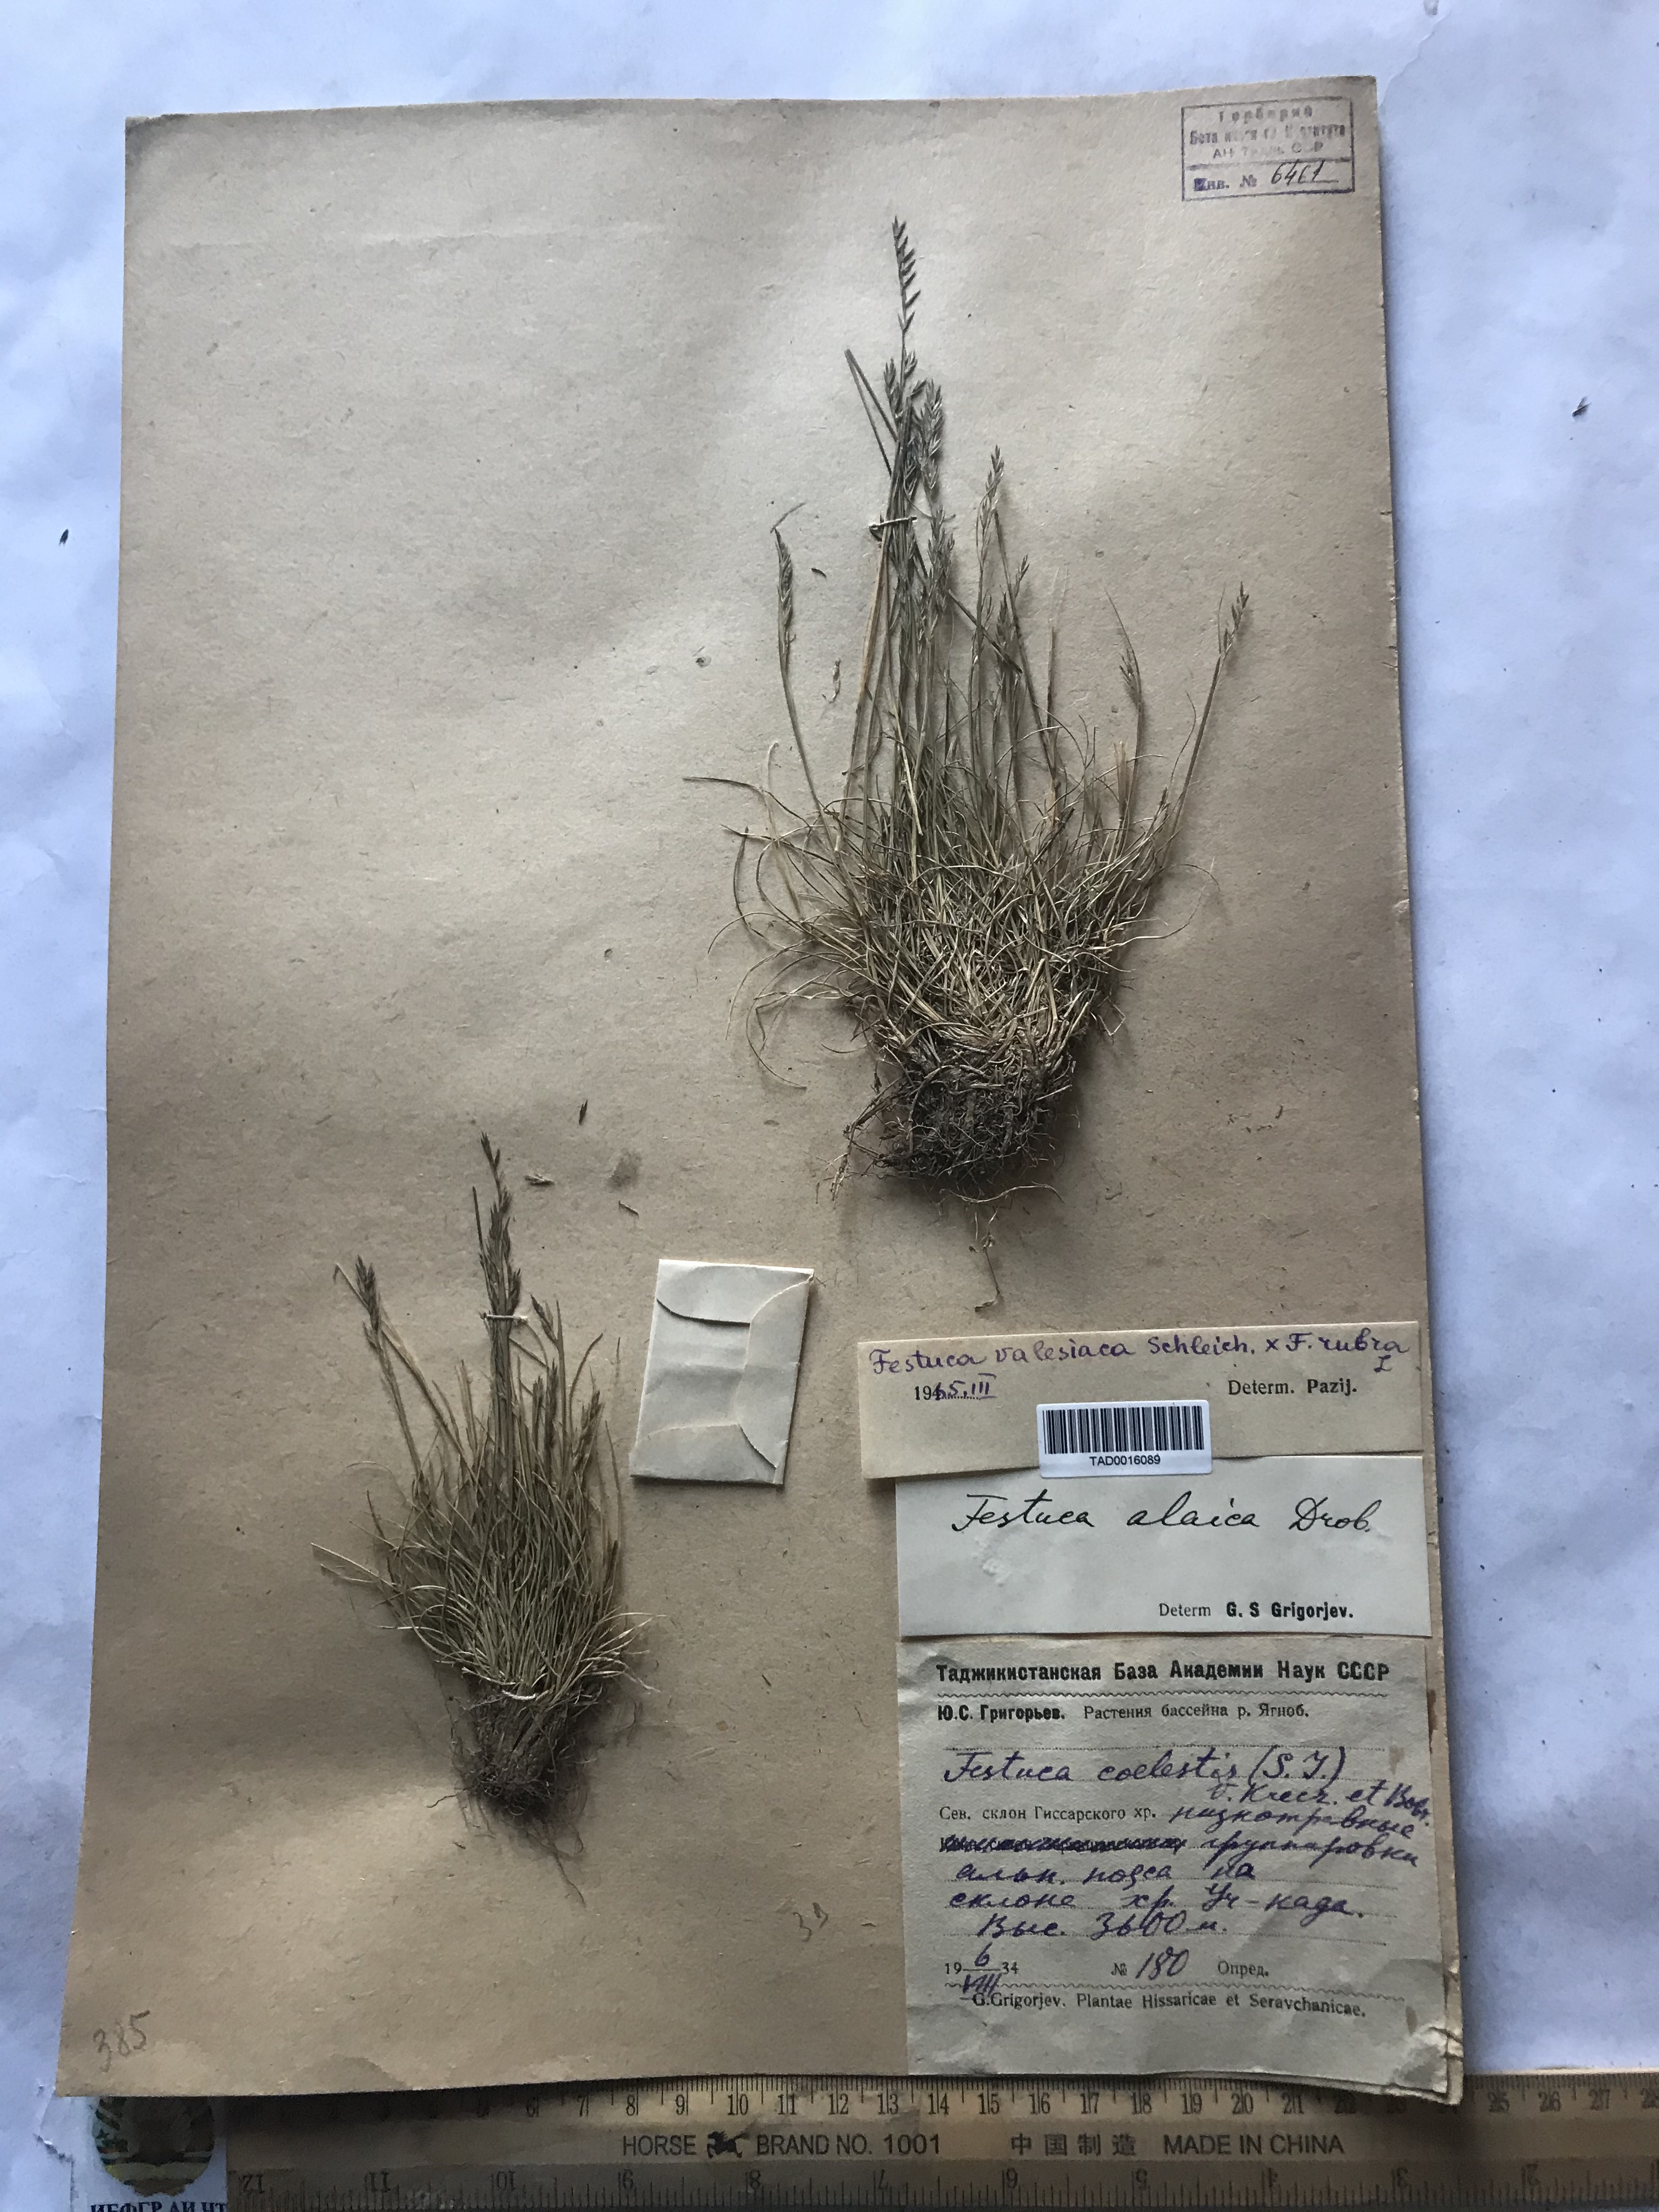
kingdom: Plantae
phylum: Tracheophyta
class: Liliopsida
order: Poales
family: Poaceae
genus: Festuca
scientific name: Festuca valesiaca
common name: Volga fescue
